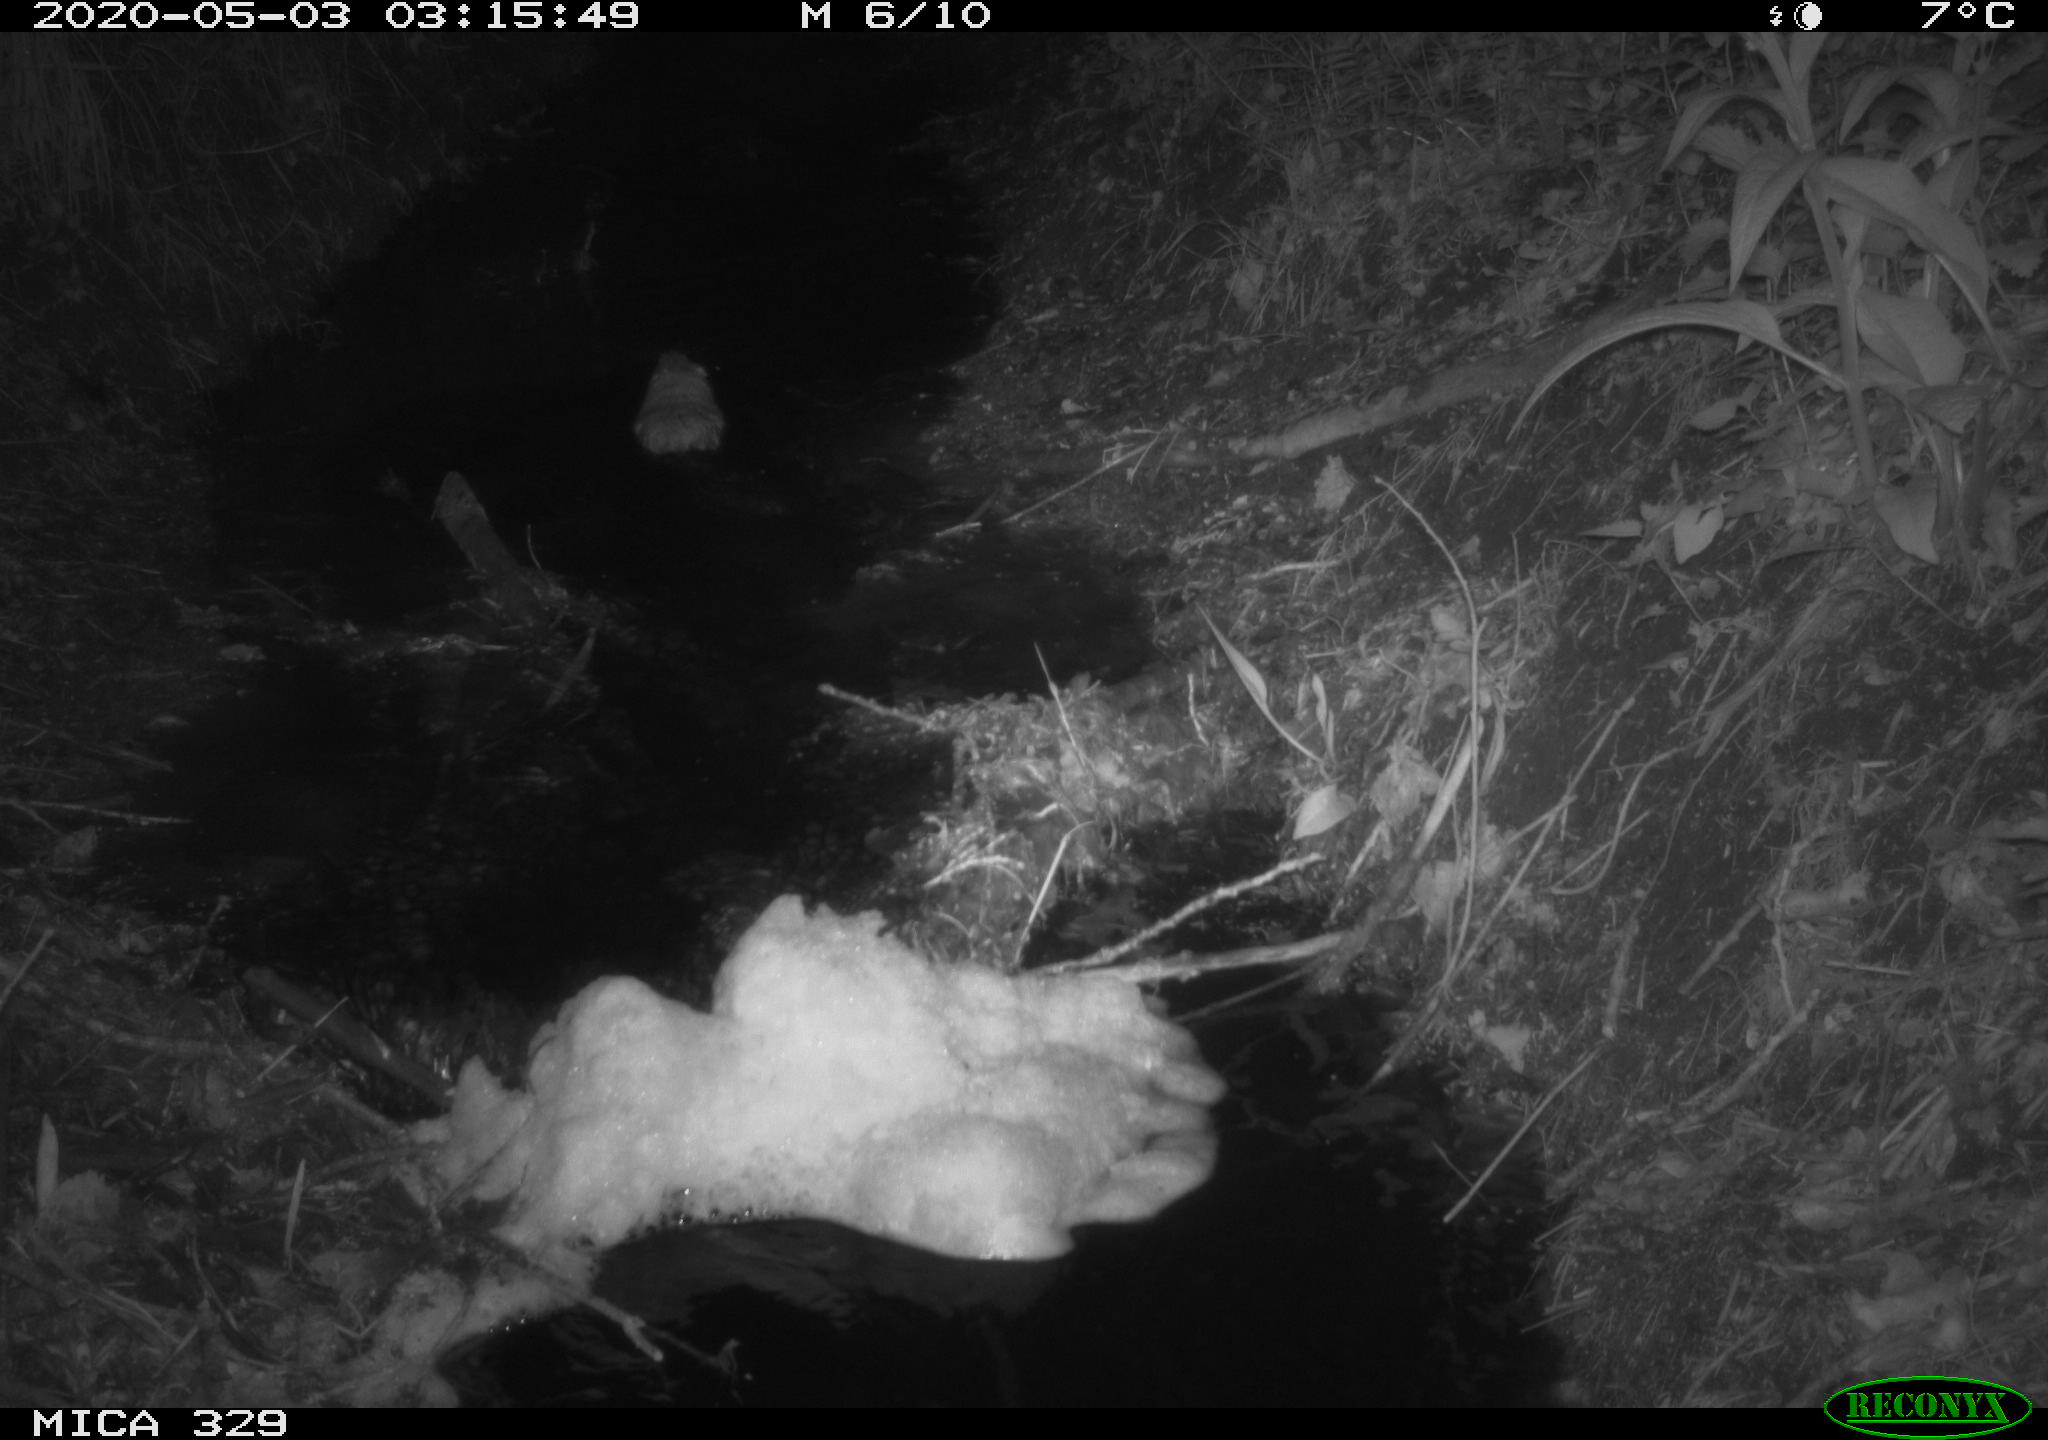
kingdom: Animalia
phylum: Chordata
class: Mammalia
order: Rodentia
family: Cricetidae
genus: Ondatra
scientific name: Ondatra zibethicus
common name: Muskrat
